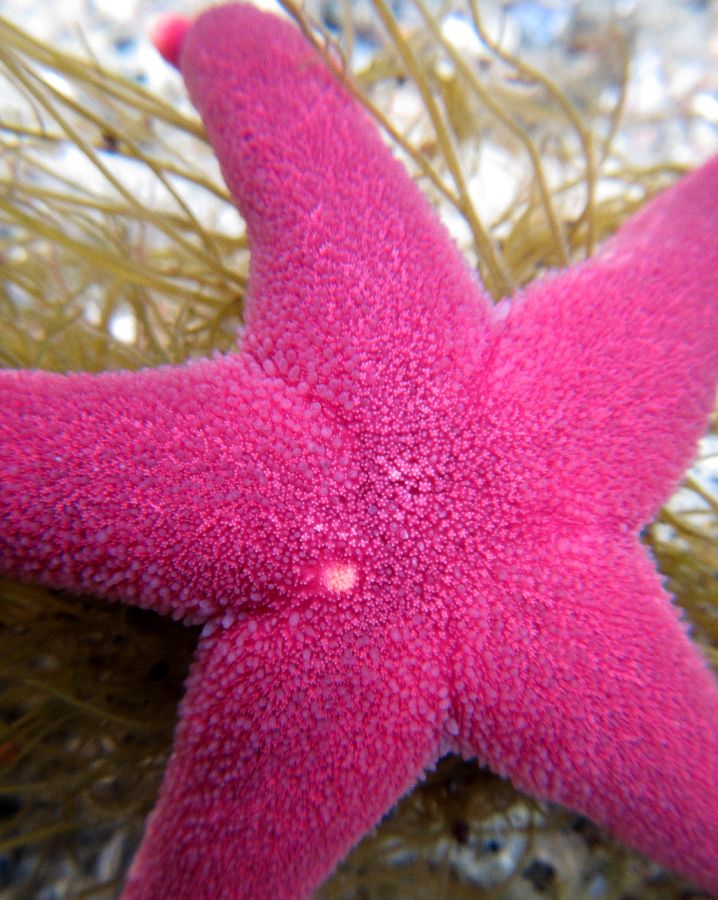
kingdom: Animalia
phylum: Echinodermata
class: Asteroidea
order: Spinulosida
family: Echinasteridae
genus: Henricia
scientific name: Henricia
